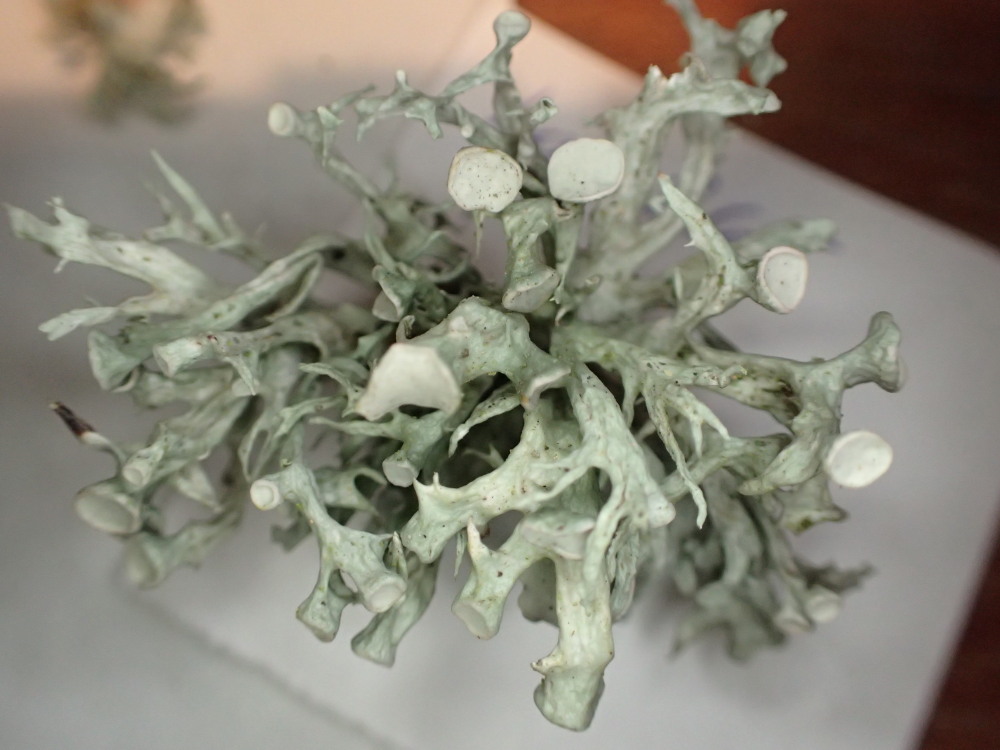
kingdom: Fungi
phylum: Ascomycota
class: Lecanoromycetes
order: Lecanorales
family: Ramalinaceae
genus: Ramalina
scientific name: Ramalina fastigiata
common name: tue-grenlav
